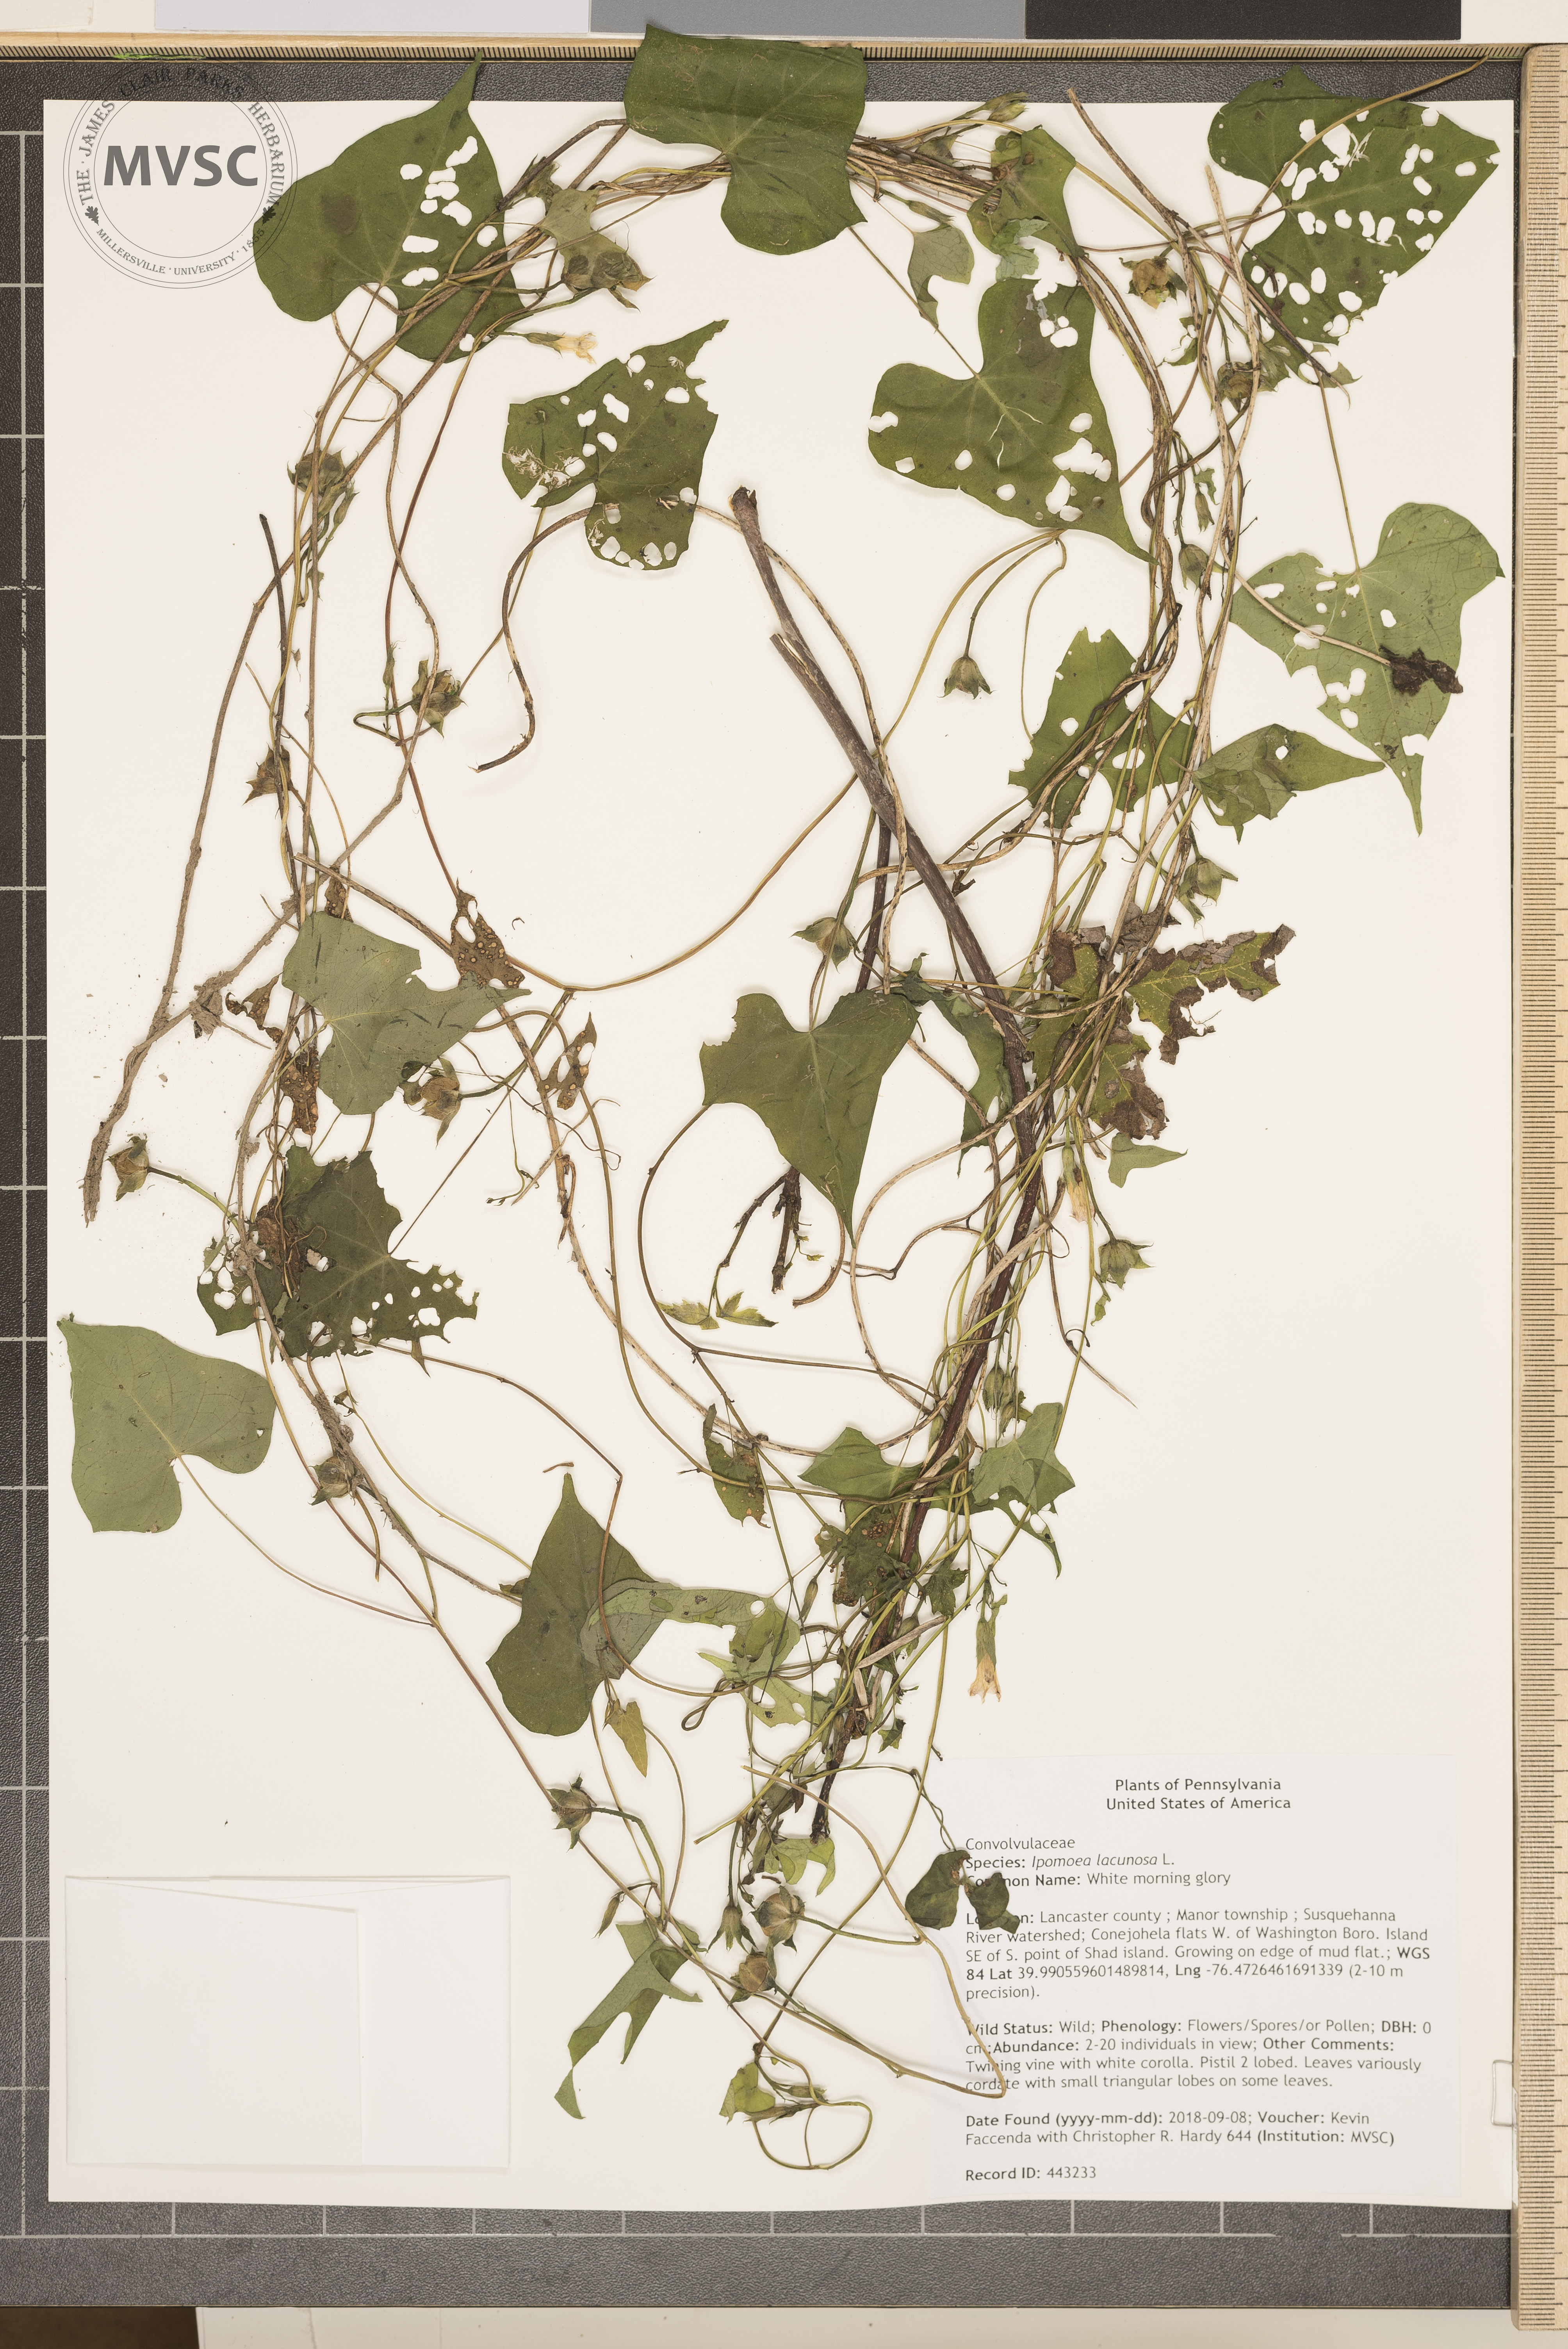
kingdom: Plantae
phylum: Tracheophyta
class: Magnoliopsida
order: Solanales
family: Convolvulaceae
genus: Ipomoea
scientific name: Ipomoea lacunosa
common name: White morning glory
